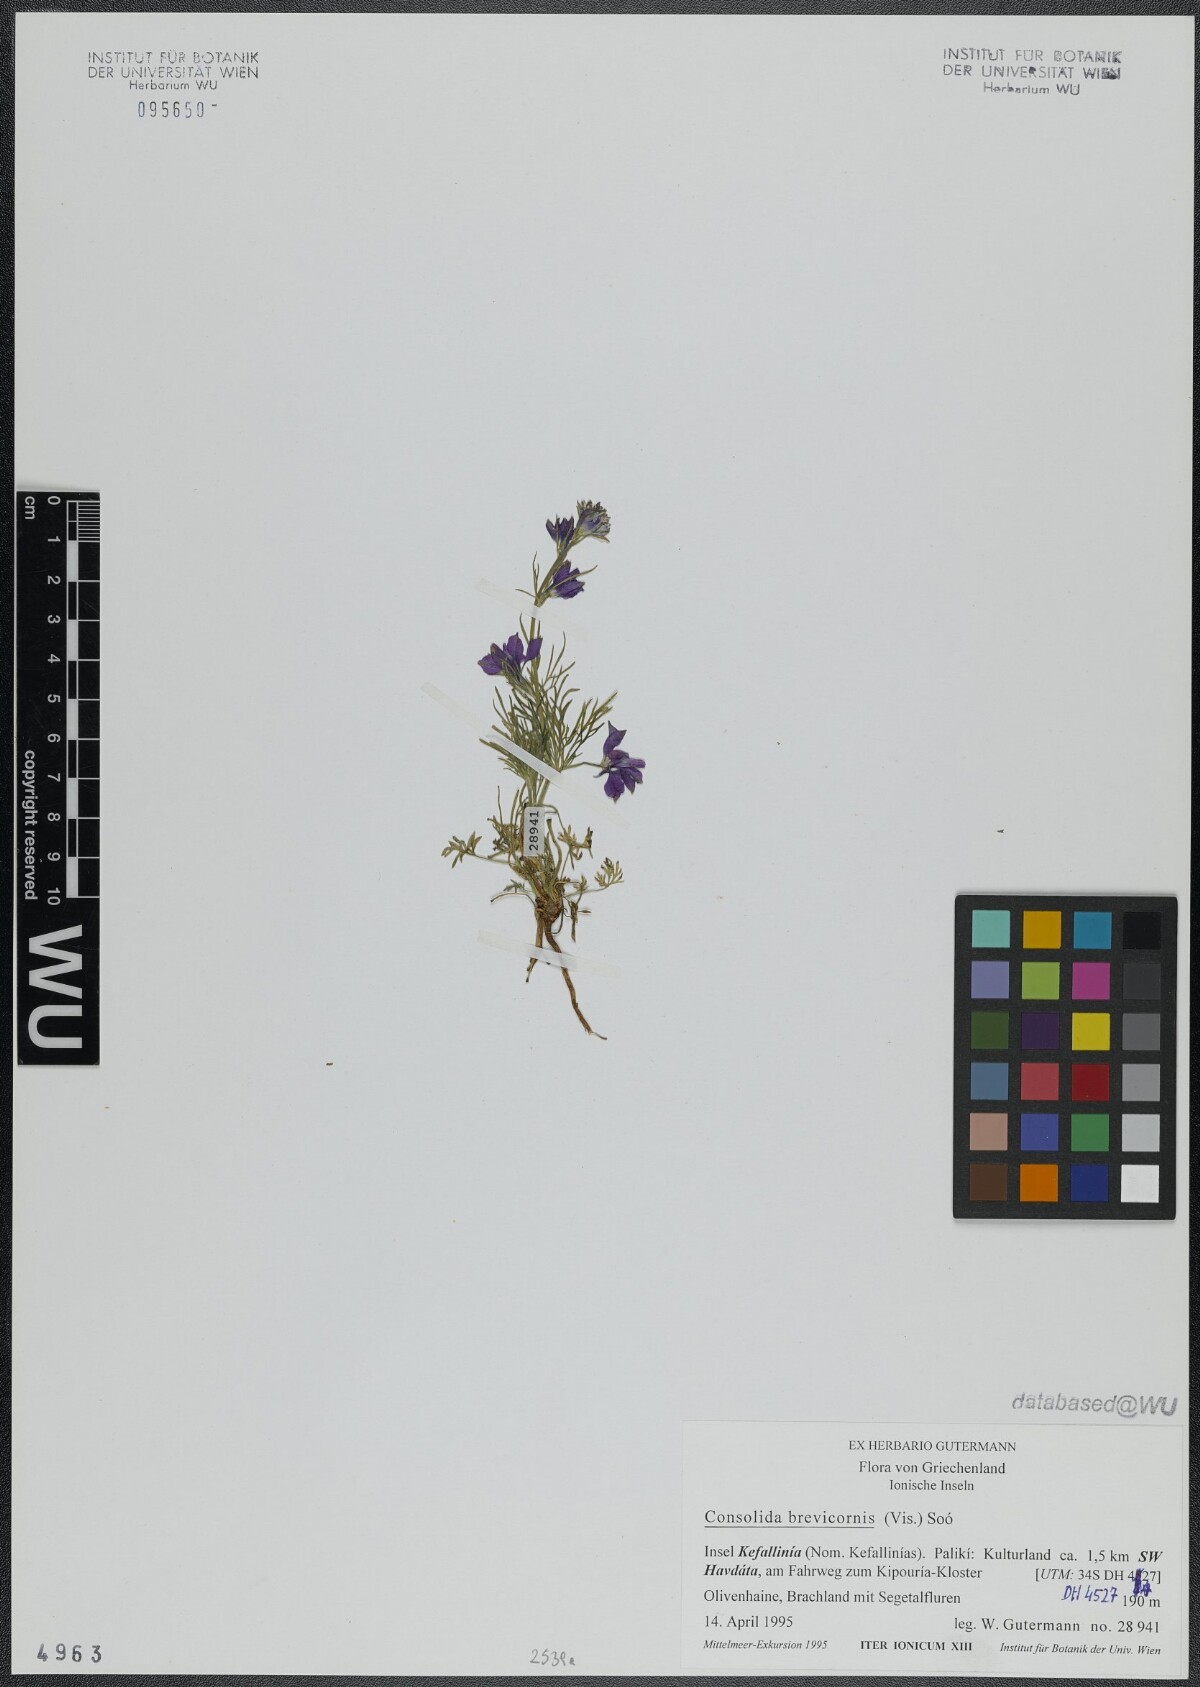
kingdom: Plantae
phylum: Tracheophyta
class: Magnoliopsida
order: Ranunculales
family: Ranunculaceae
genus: Delphinium
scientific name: Delphinium brevicorne
